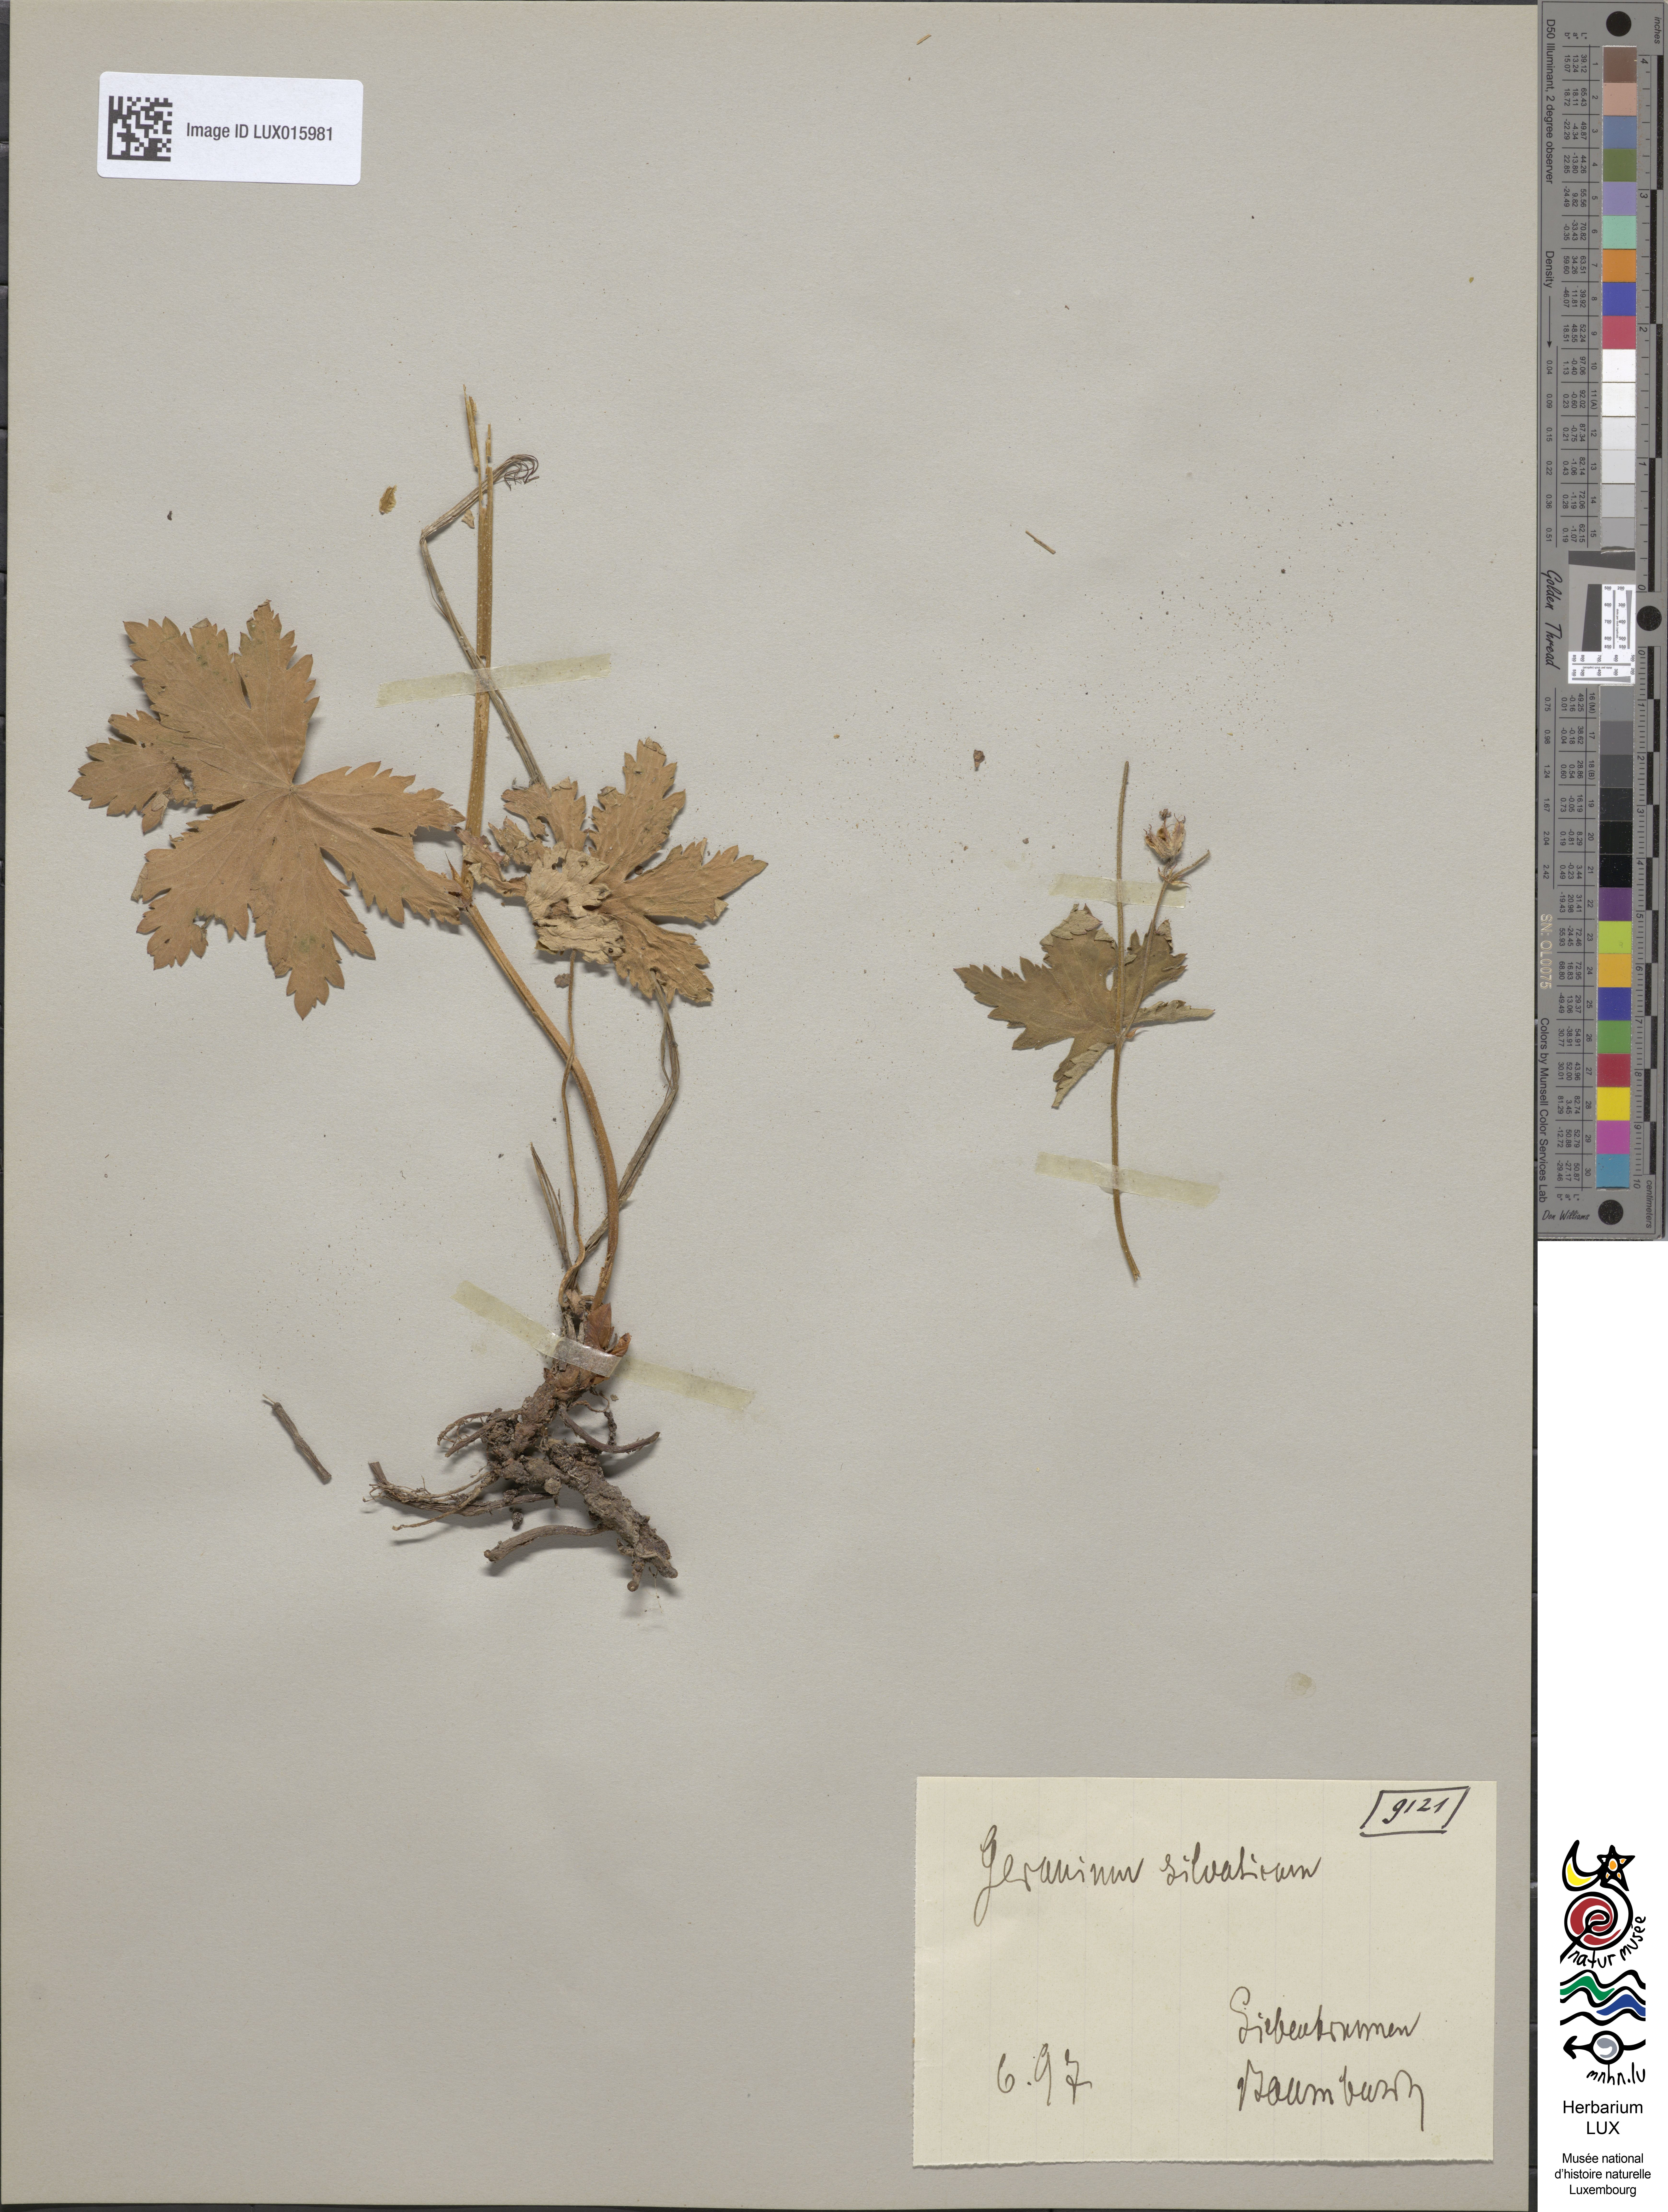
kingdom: Plantae
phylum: Tracheophyta
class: Magnoliopsida
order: Geraniales
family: Geraniaceae
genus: Geranium
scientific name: Geranium sylvaticum
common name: Wood crane's-bill
